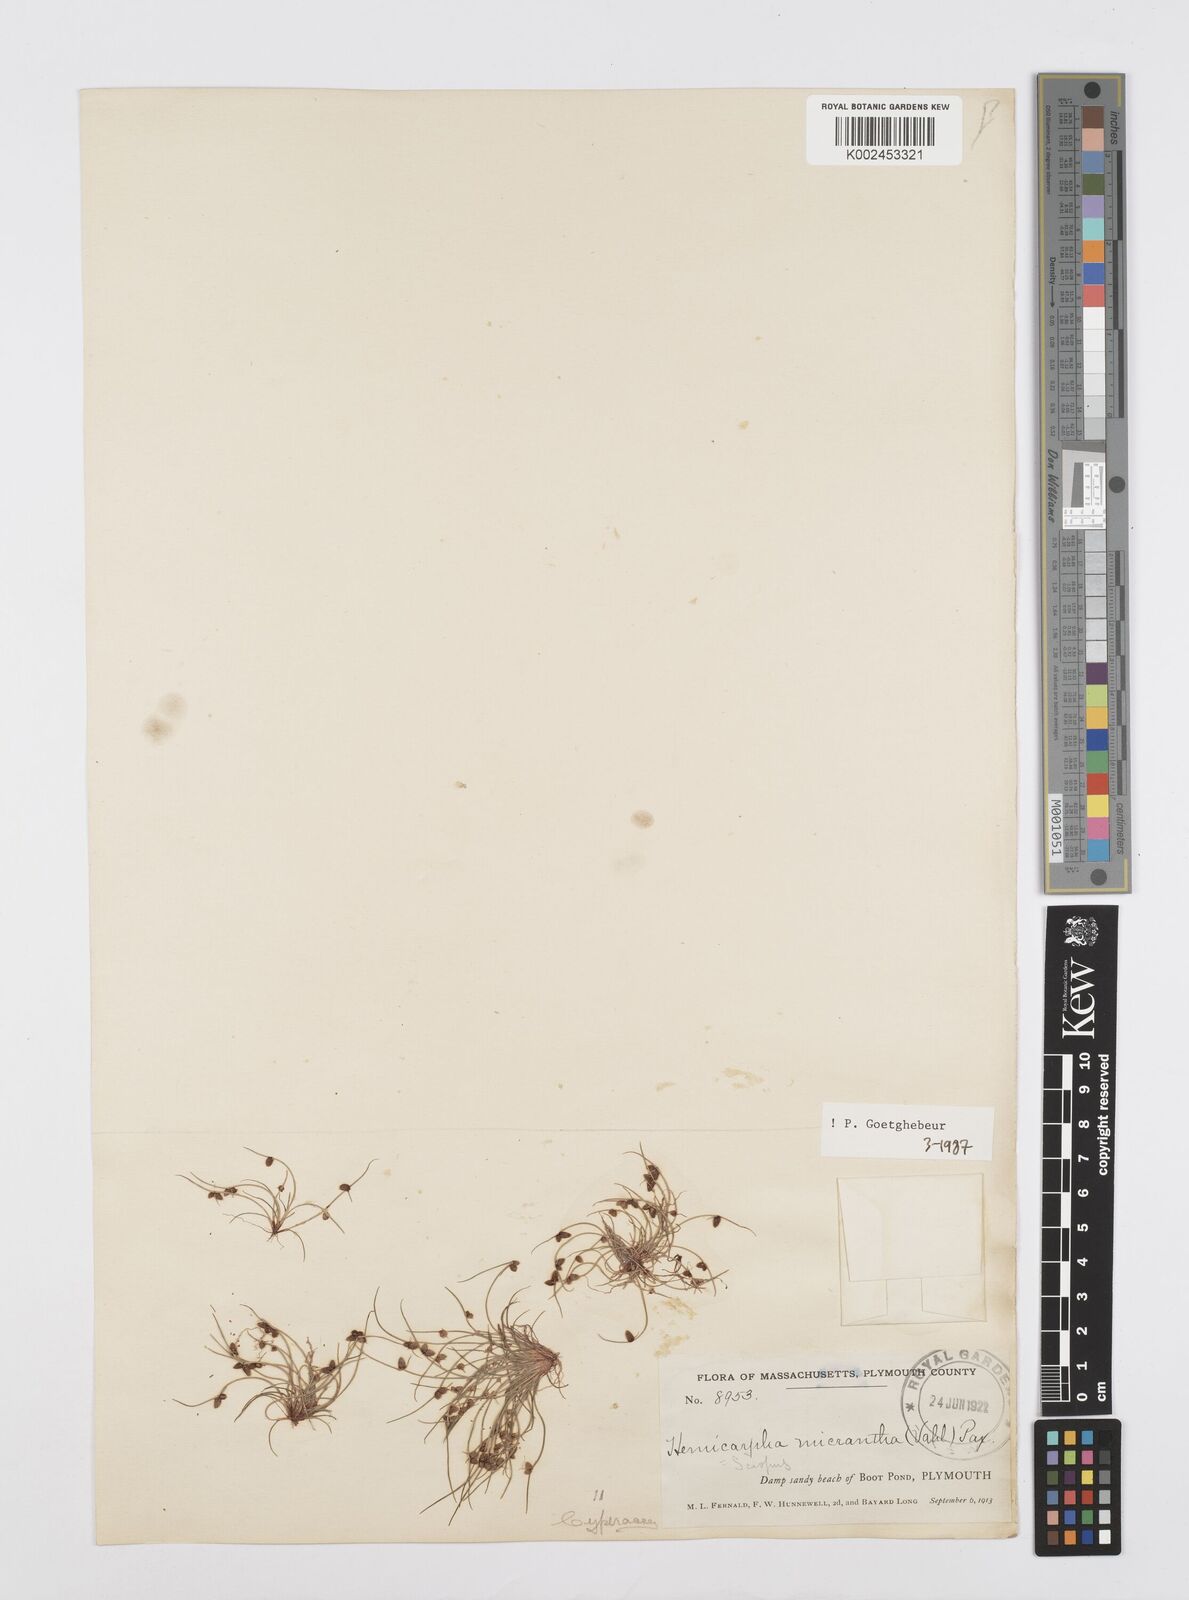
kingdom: Plantae
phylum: Tracheophyta
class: Liliopsida
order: Poales
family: Cyperaceae
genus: Cyperus
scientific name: Cyperus dentatus
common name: Dentate umbrella sedge
